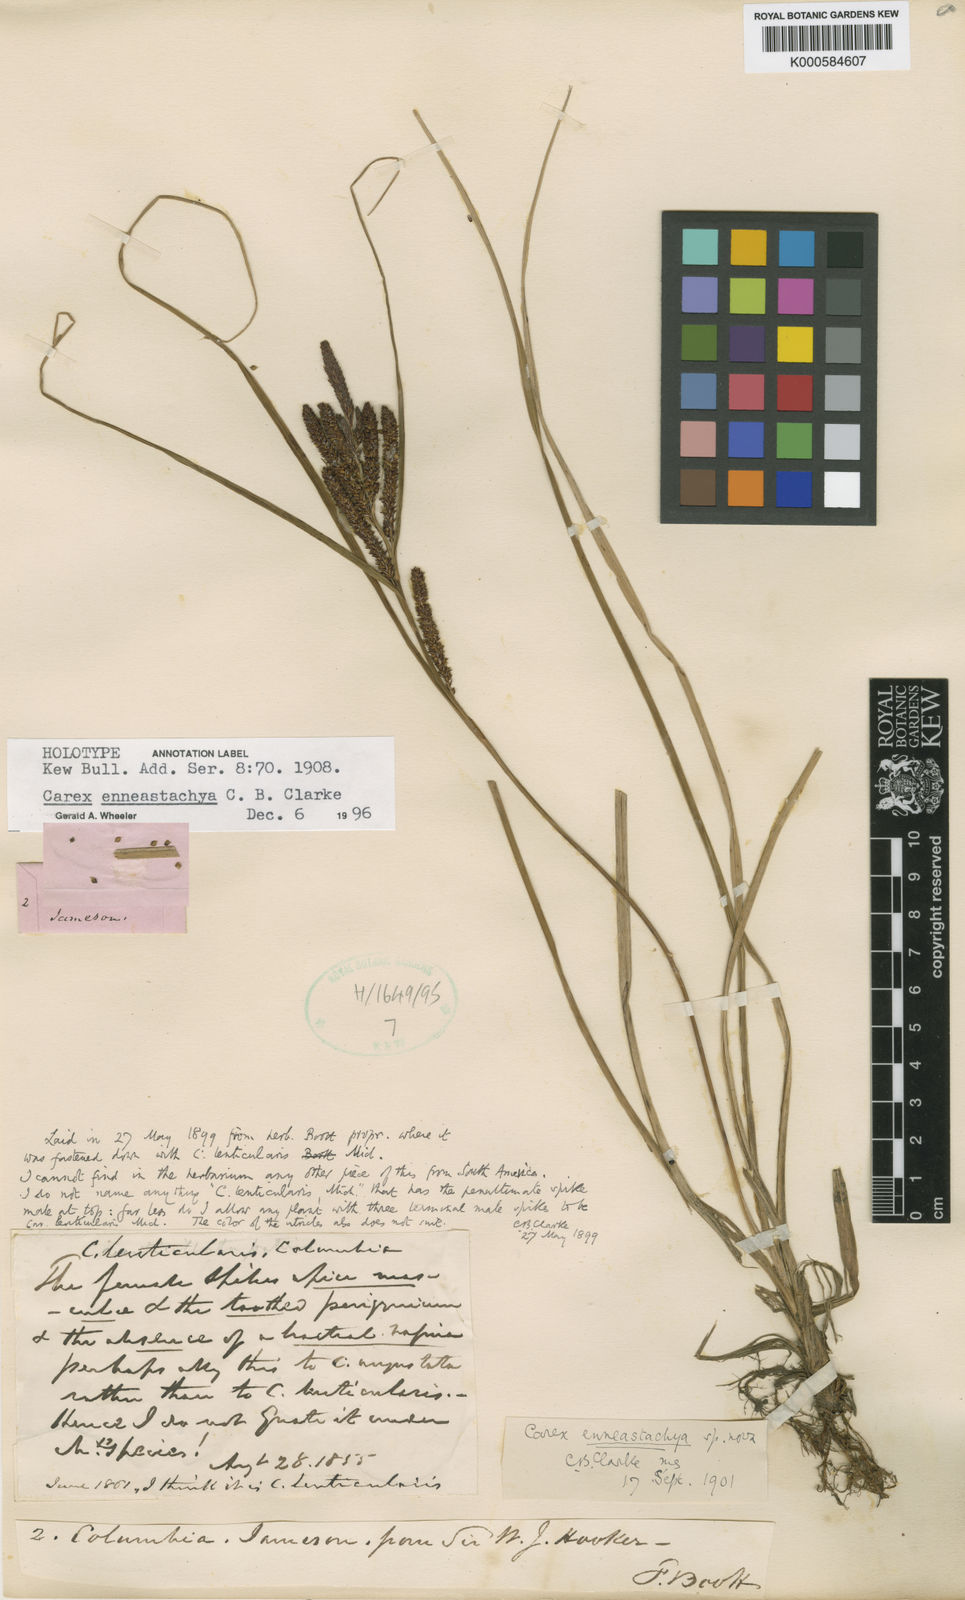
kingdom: Plantae
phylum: Tracheophyta
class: Liliopsida
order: Poales
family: Cyperaceae
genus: Carex
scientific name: Carex enneastachya
